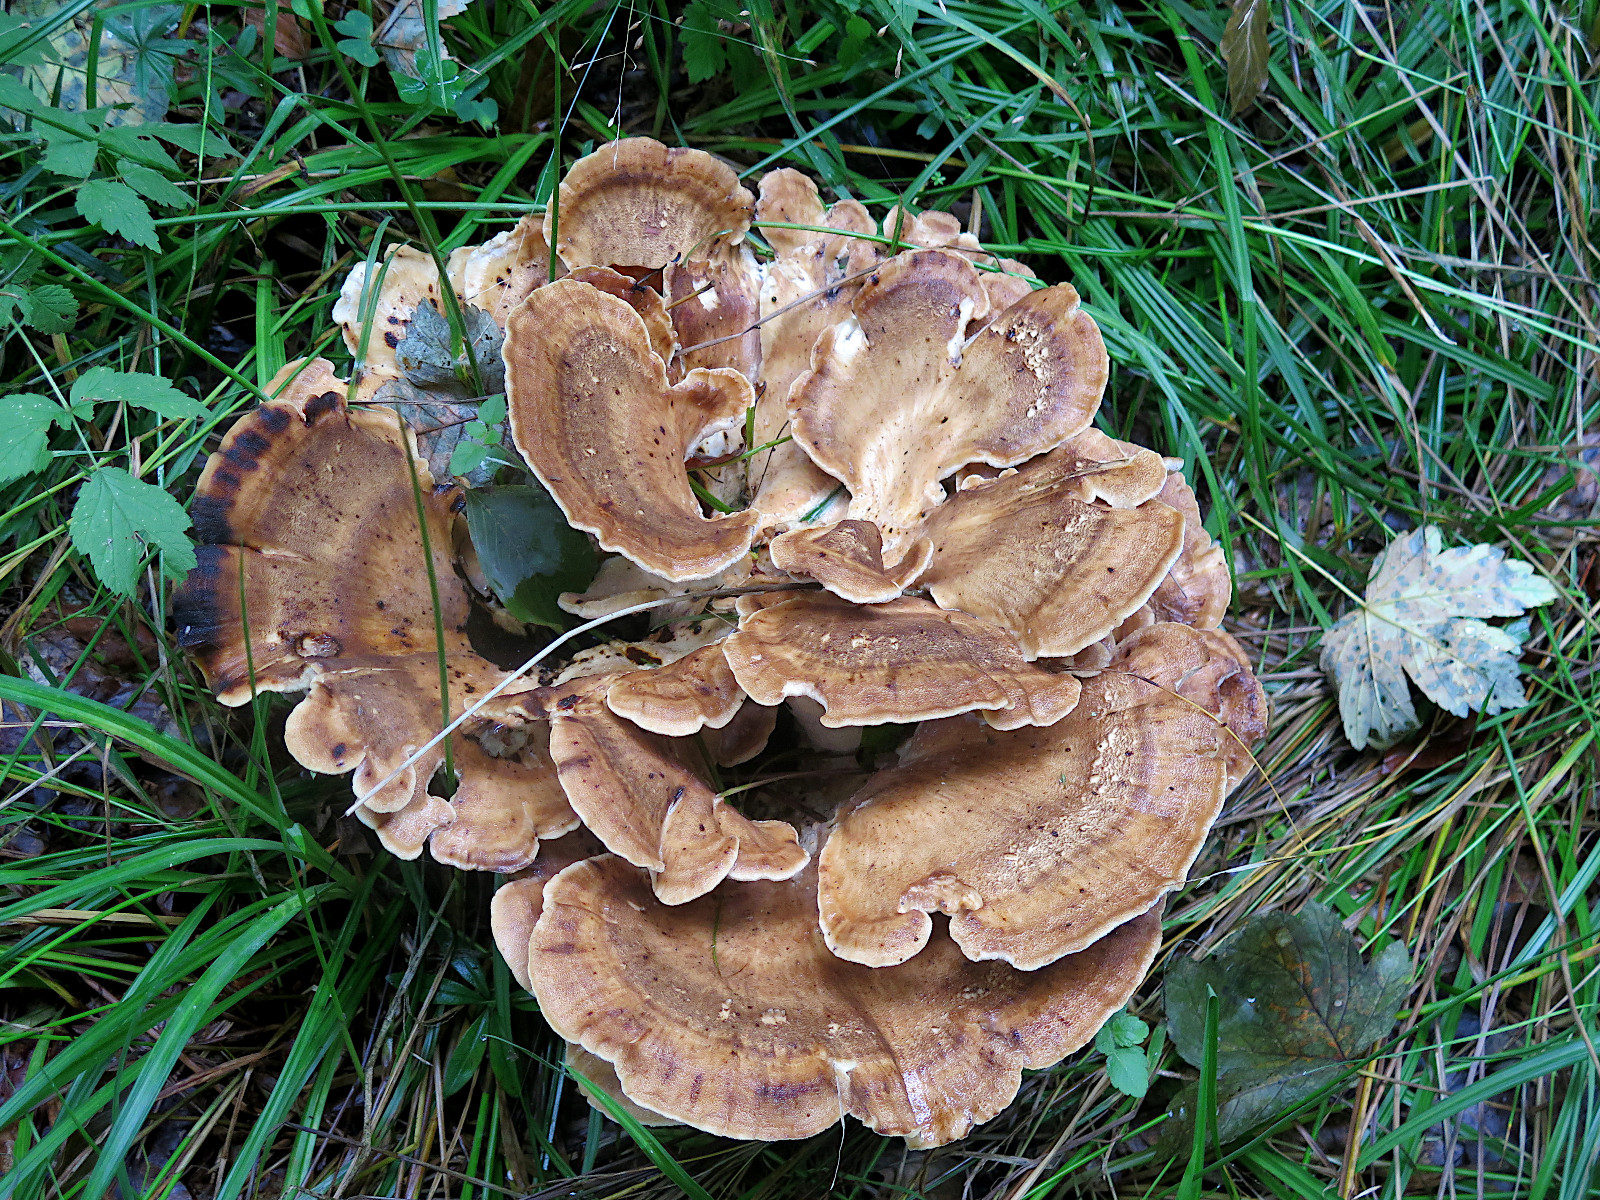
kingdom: Fungi
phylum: Basidiomycota
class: Agaricomycetes
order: Polyporales
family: Meripilaceae
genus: Meripilus
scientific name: Meripilus giganteus
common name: kæmpeporesvamp
